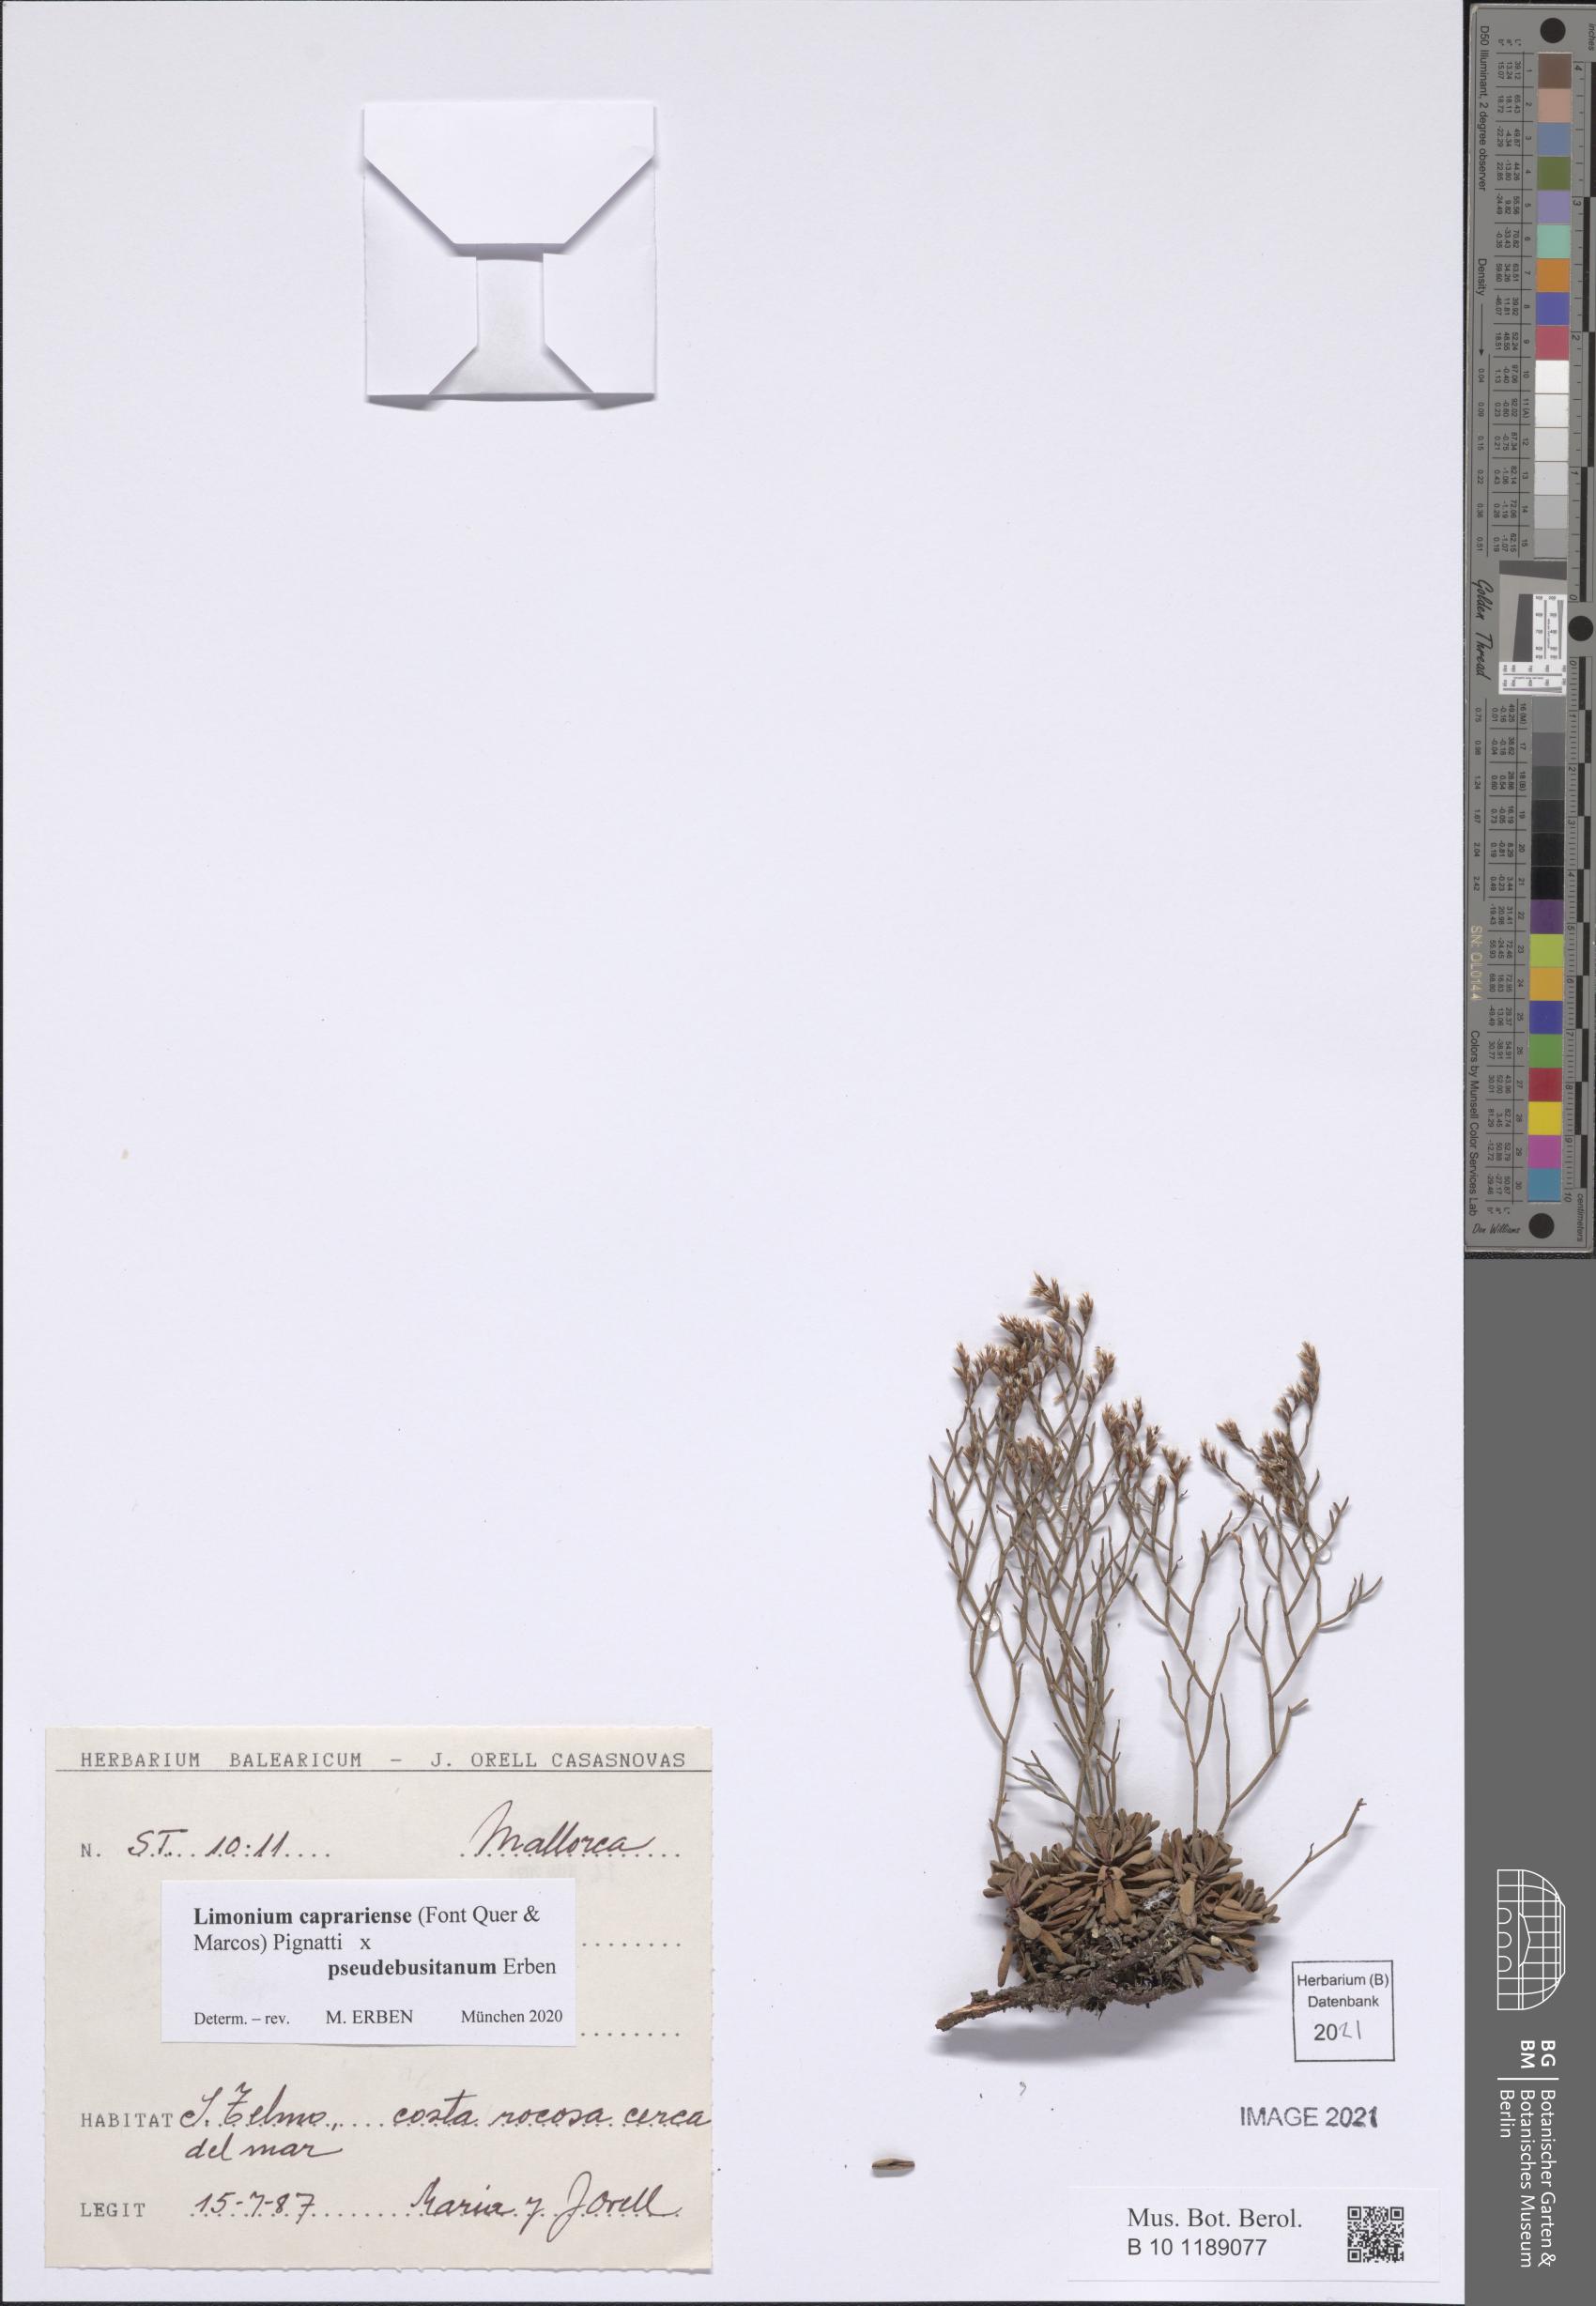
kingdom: Plantae
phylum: Tracheophyta
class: Magnoliopsida
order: Caryophyllales
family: Plumbaginaceae
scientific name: Plumbaginaceae
